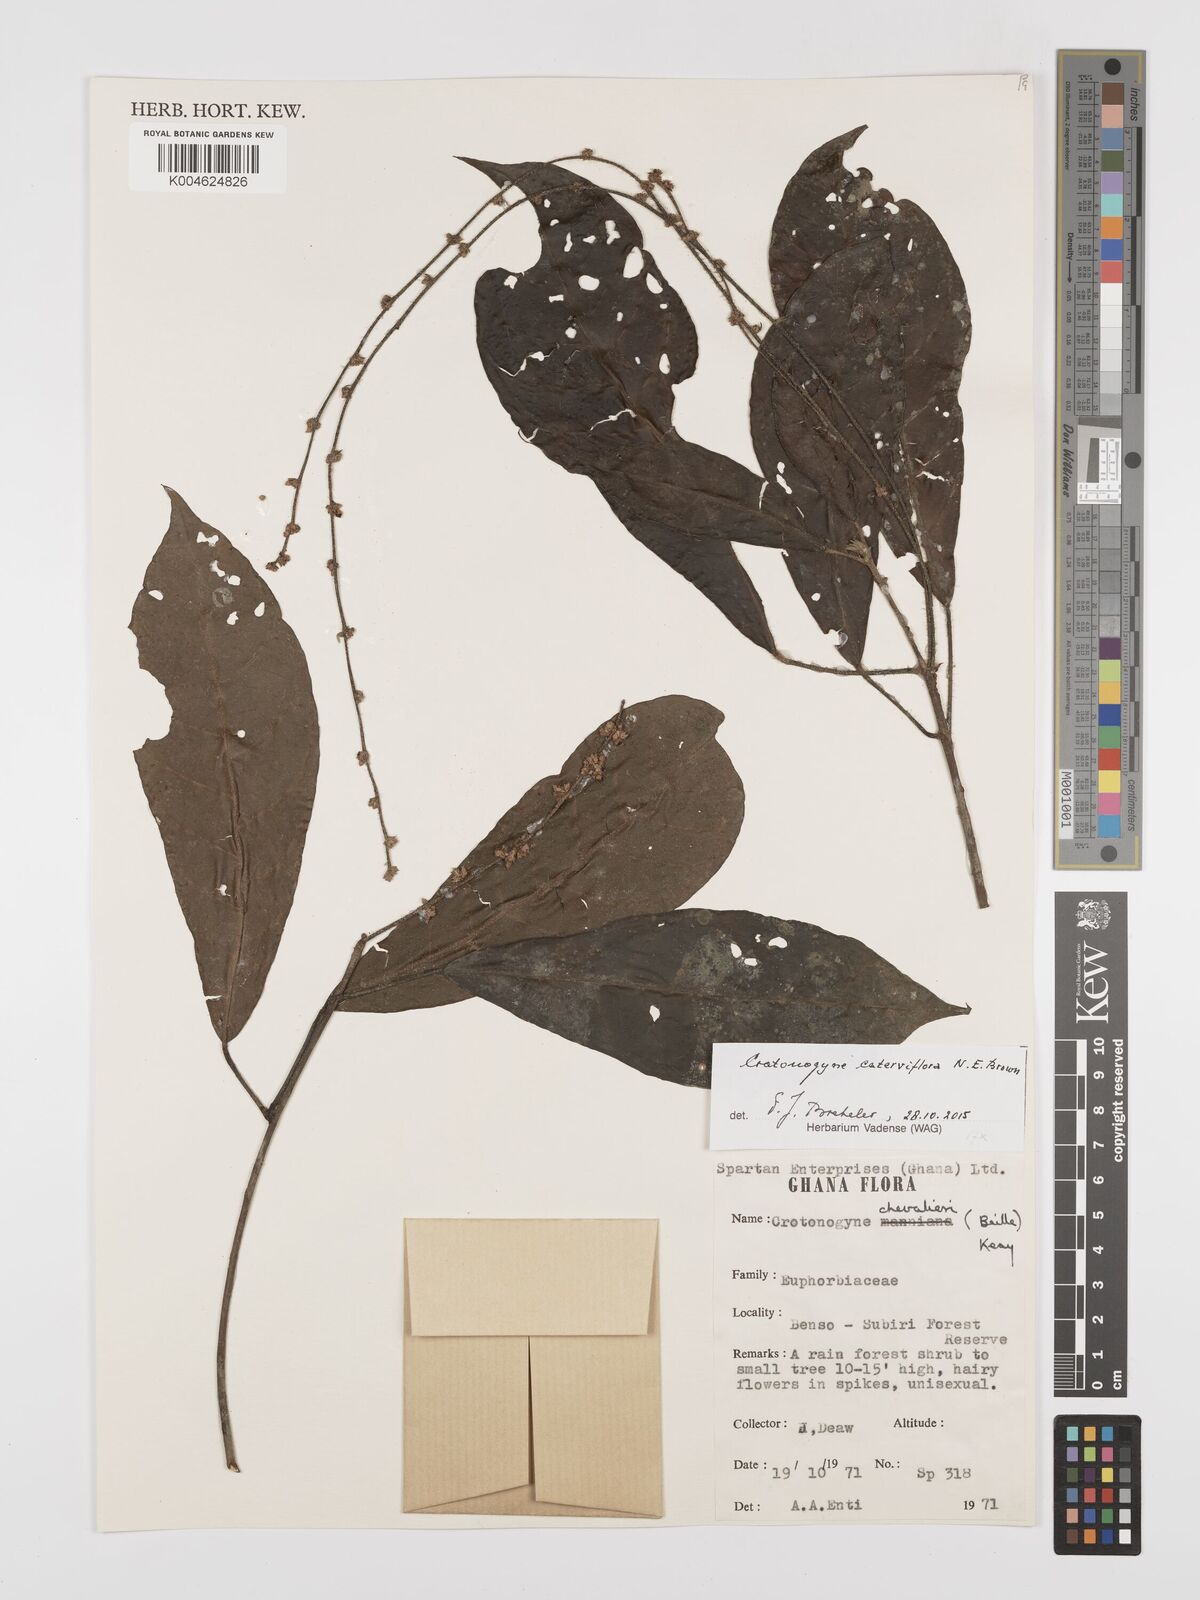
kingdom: Plantae
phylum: Tracheophyta
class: Magnoliopsida
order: Malpighiales
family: Euphorbiaceae
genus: Crotonogyne
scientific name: Crotonogyne caterviflora
